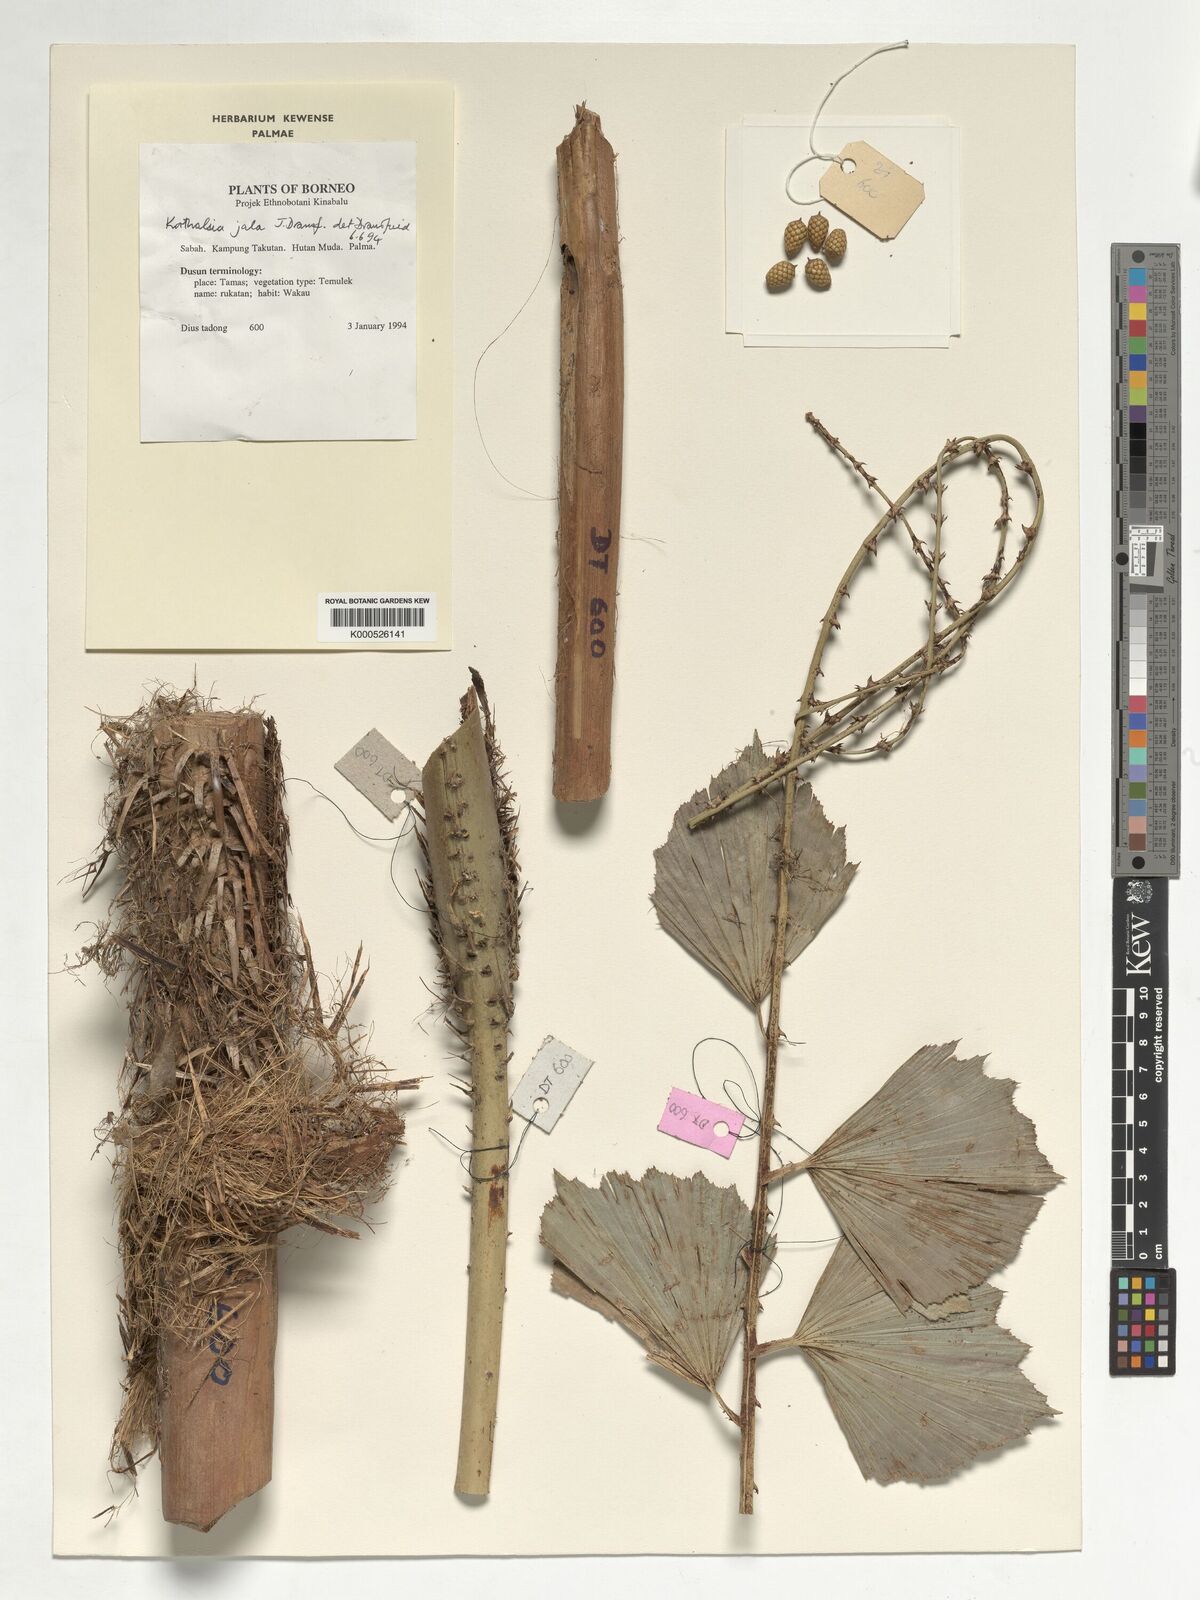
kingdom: Plantae
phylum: Tracheophyta
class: Liliopsida
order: Arecales
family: Arecaceae
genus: Korthalsia
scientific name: Korthalsia jala
